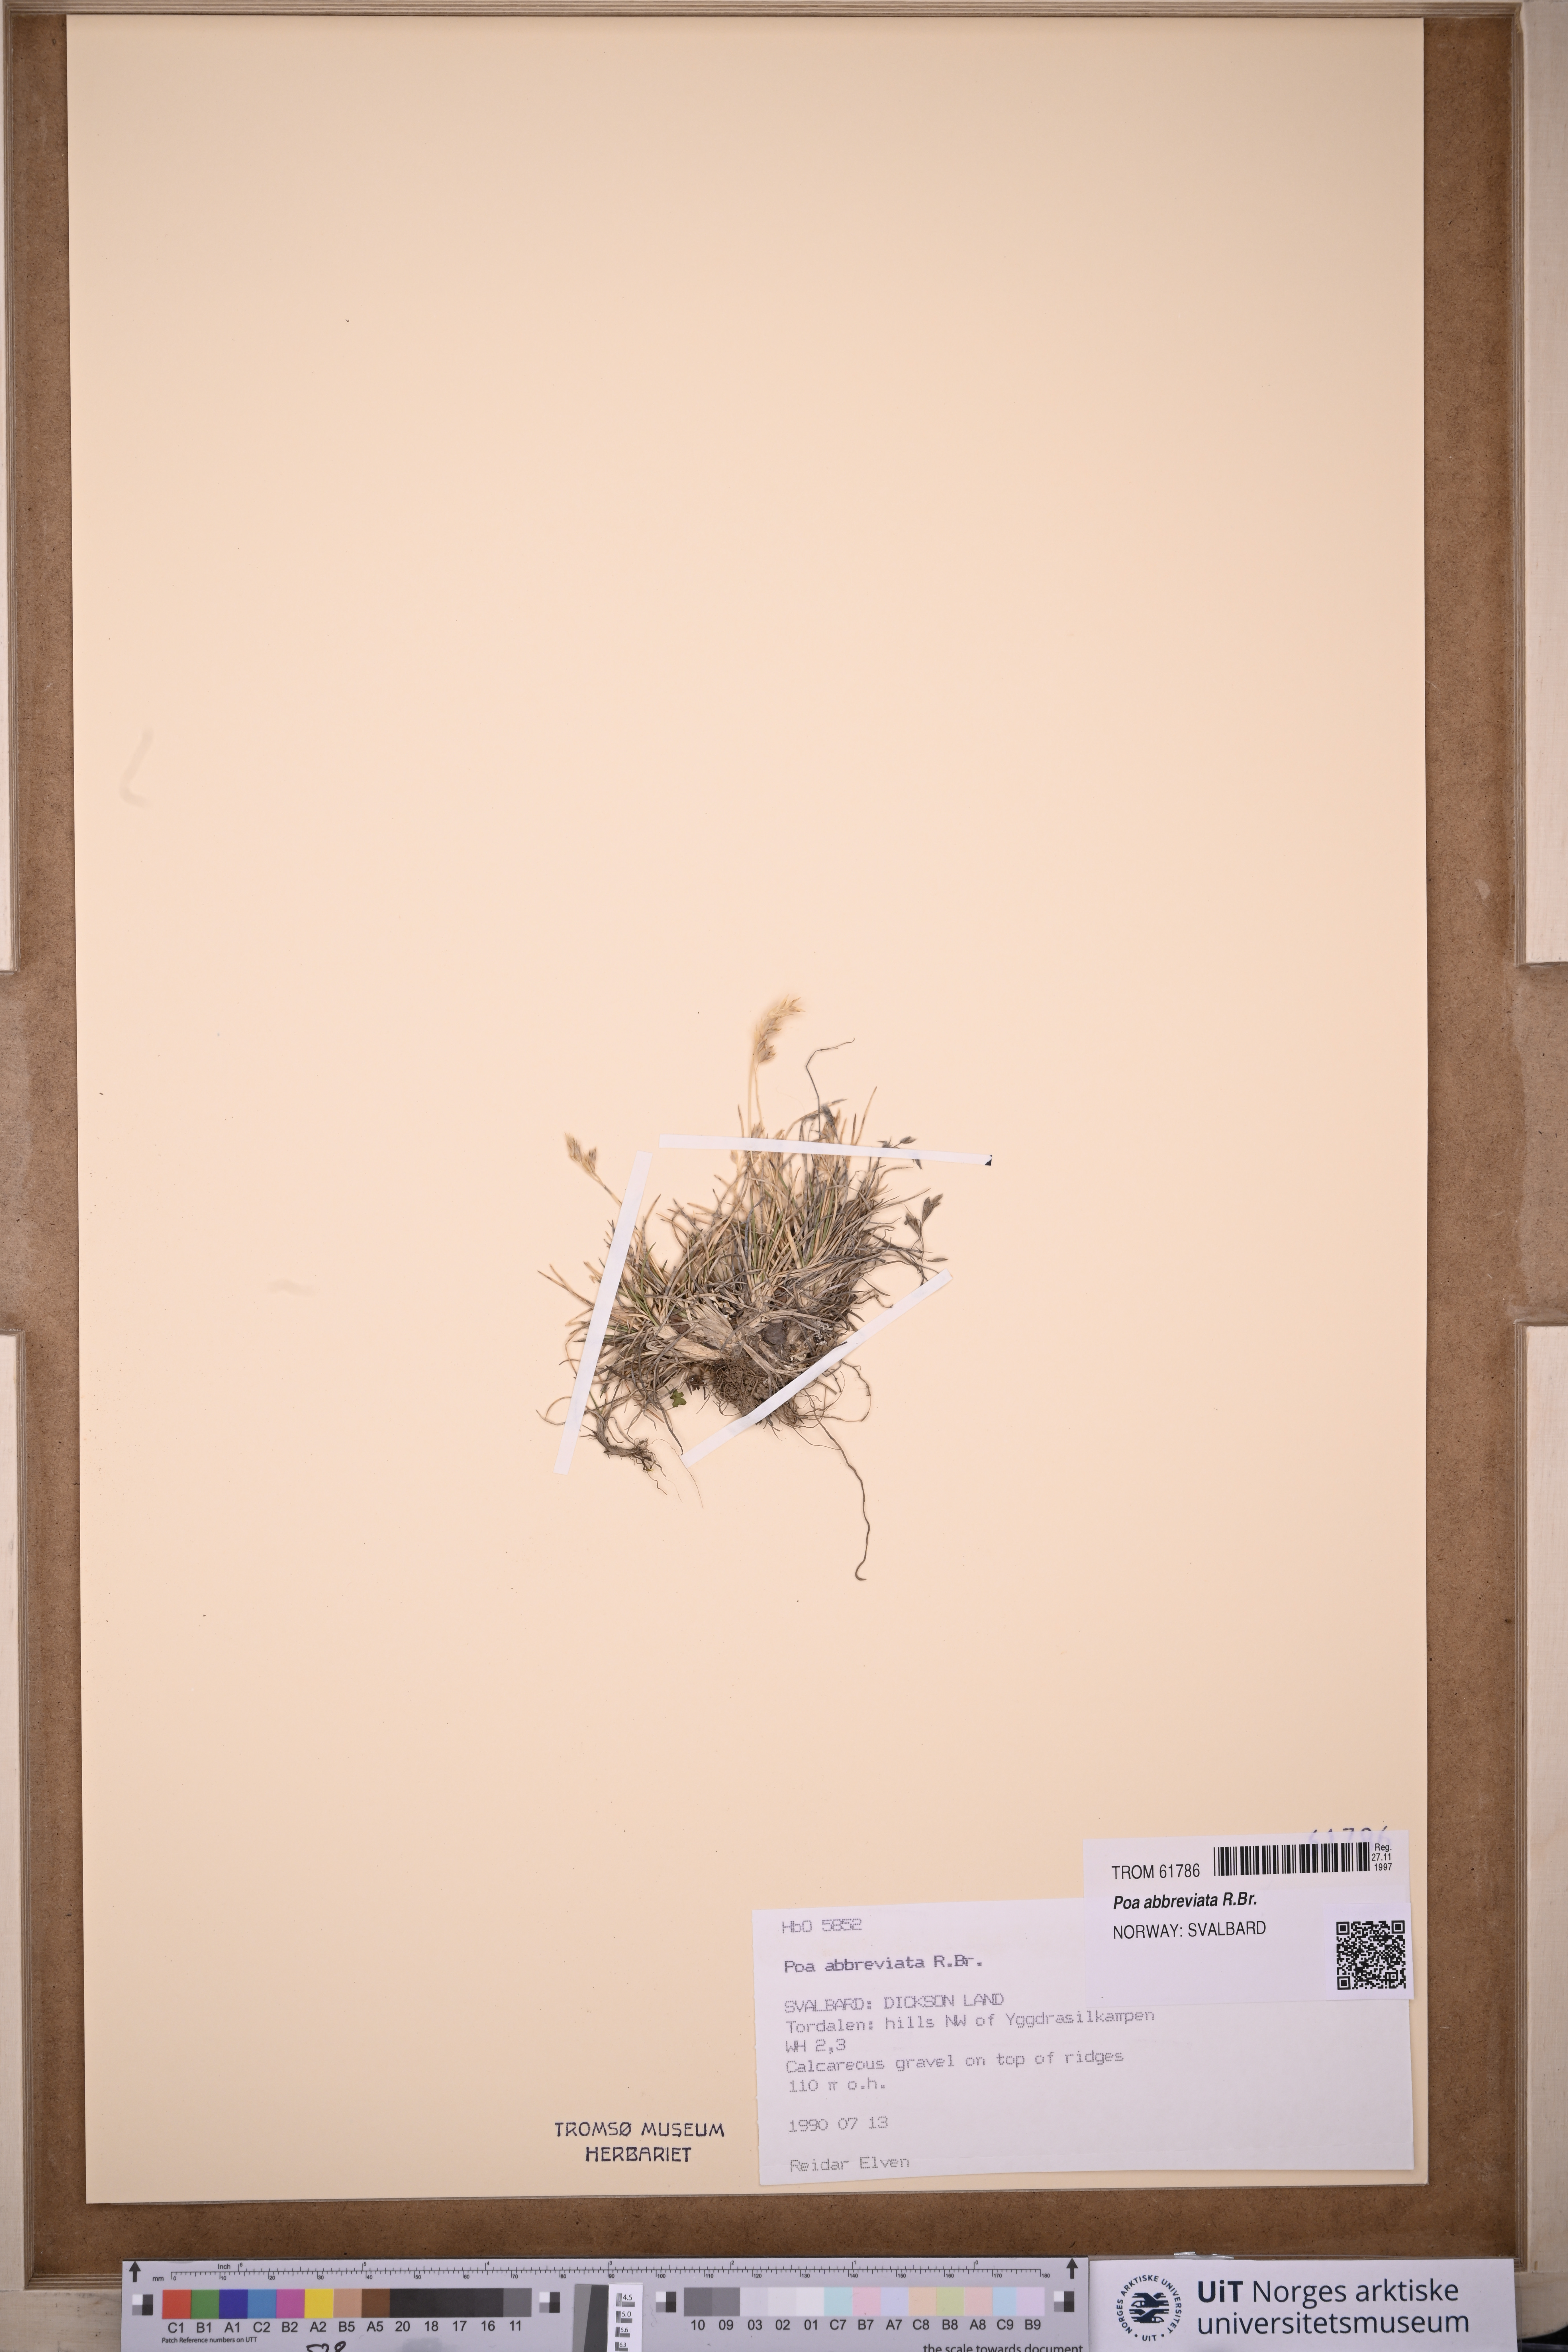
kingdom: Plantae
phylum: Tracheophyta
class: Liliopsida
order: Poales
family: Poaceae
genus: Poa
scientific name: Poa abbreviata
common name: Abbreviated bluegrass
